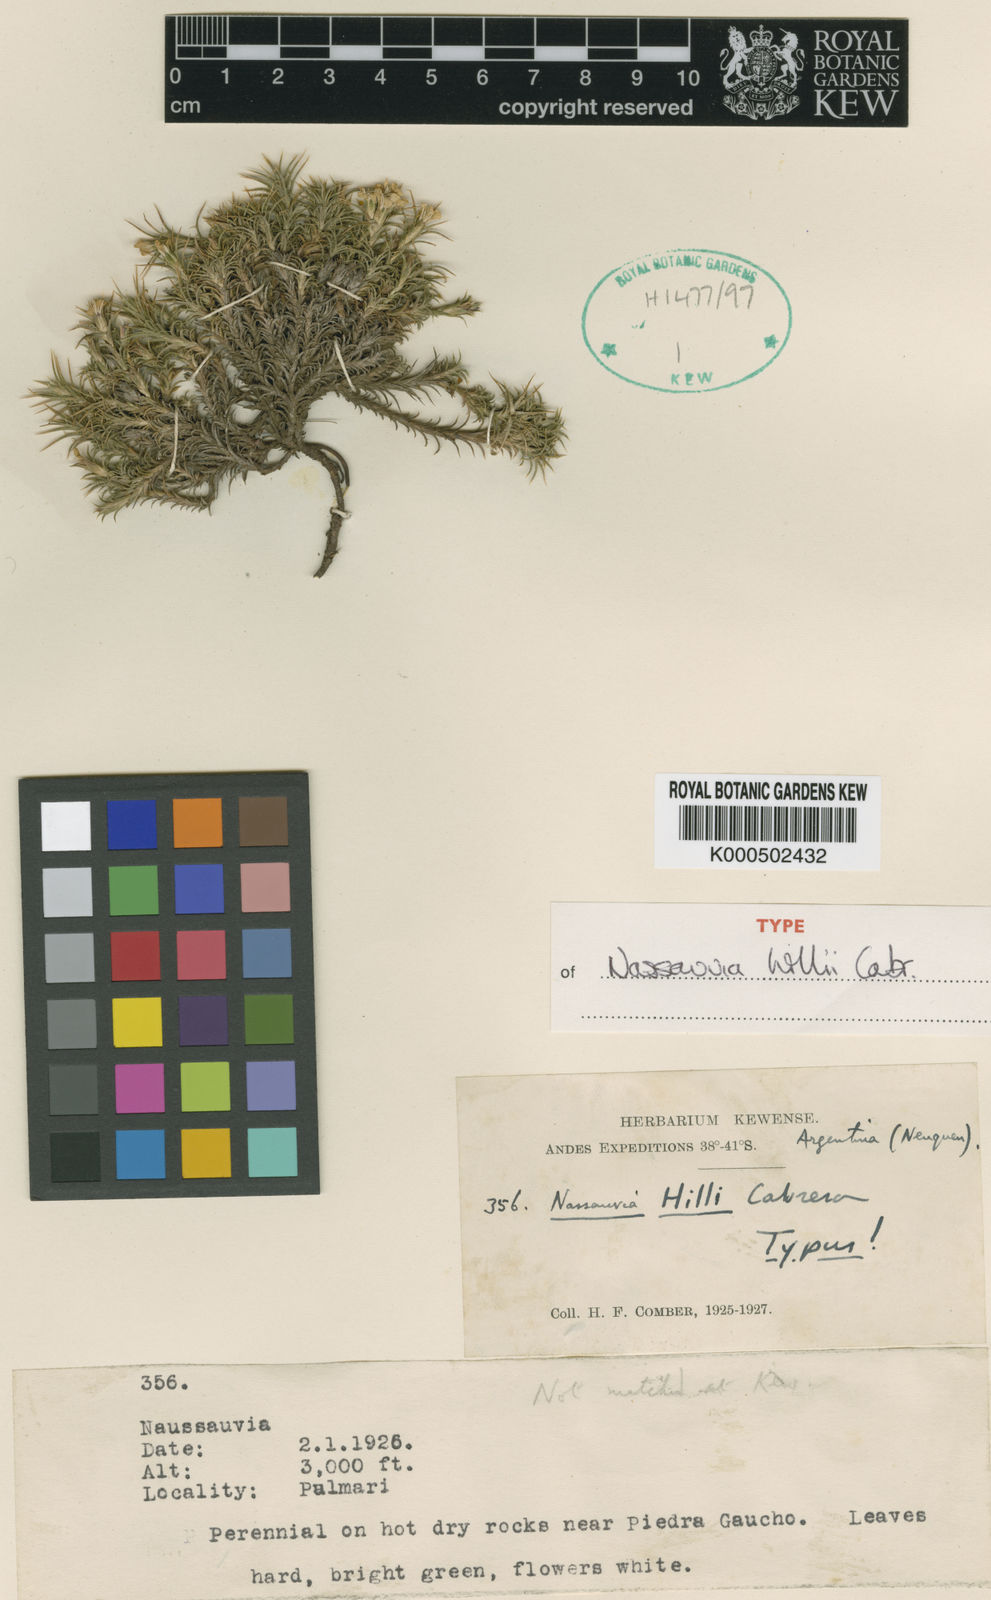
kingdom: Plantae
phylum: Tracheophyta
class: Magnoliopsida
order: Asterales
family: Asteraceae
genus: Nassauvia
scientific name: Nassauvia hillii
